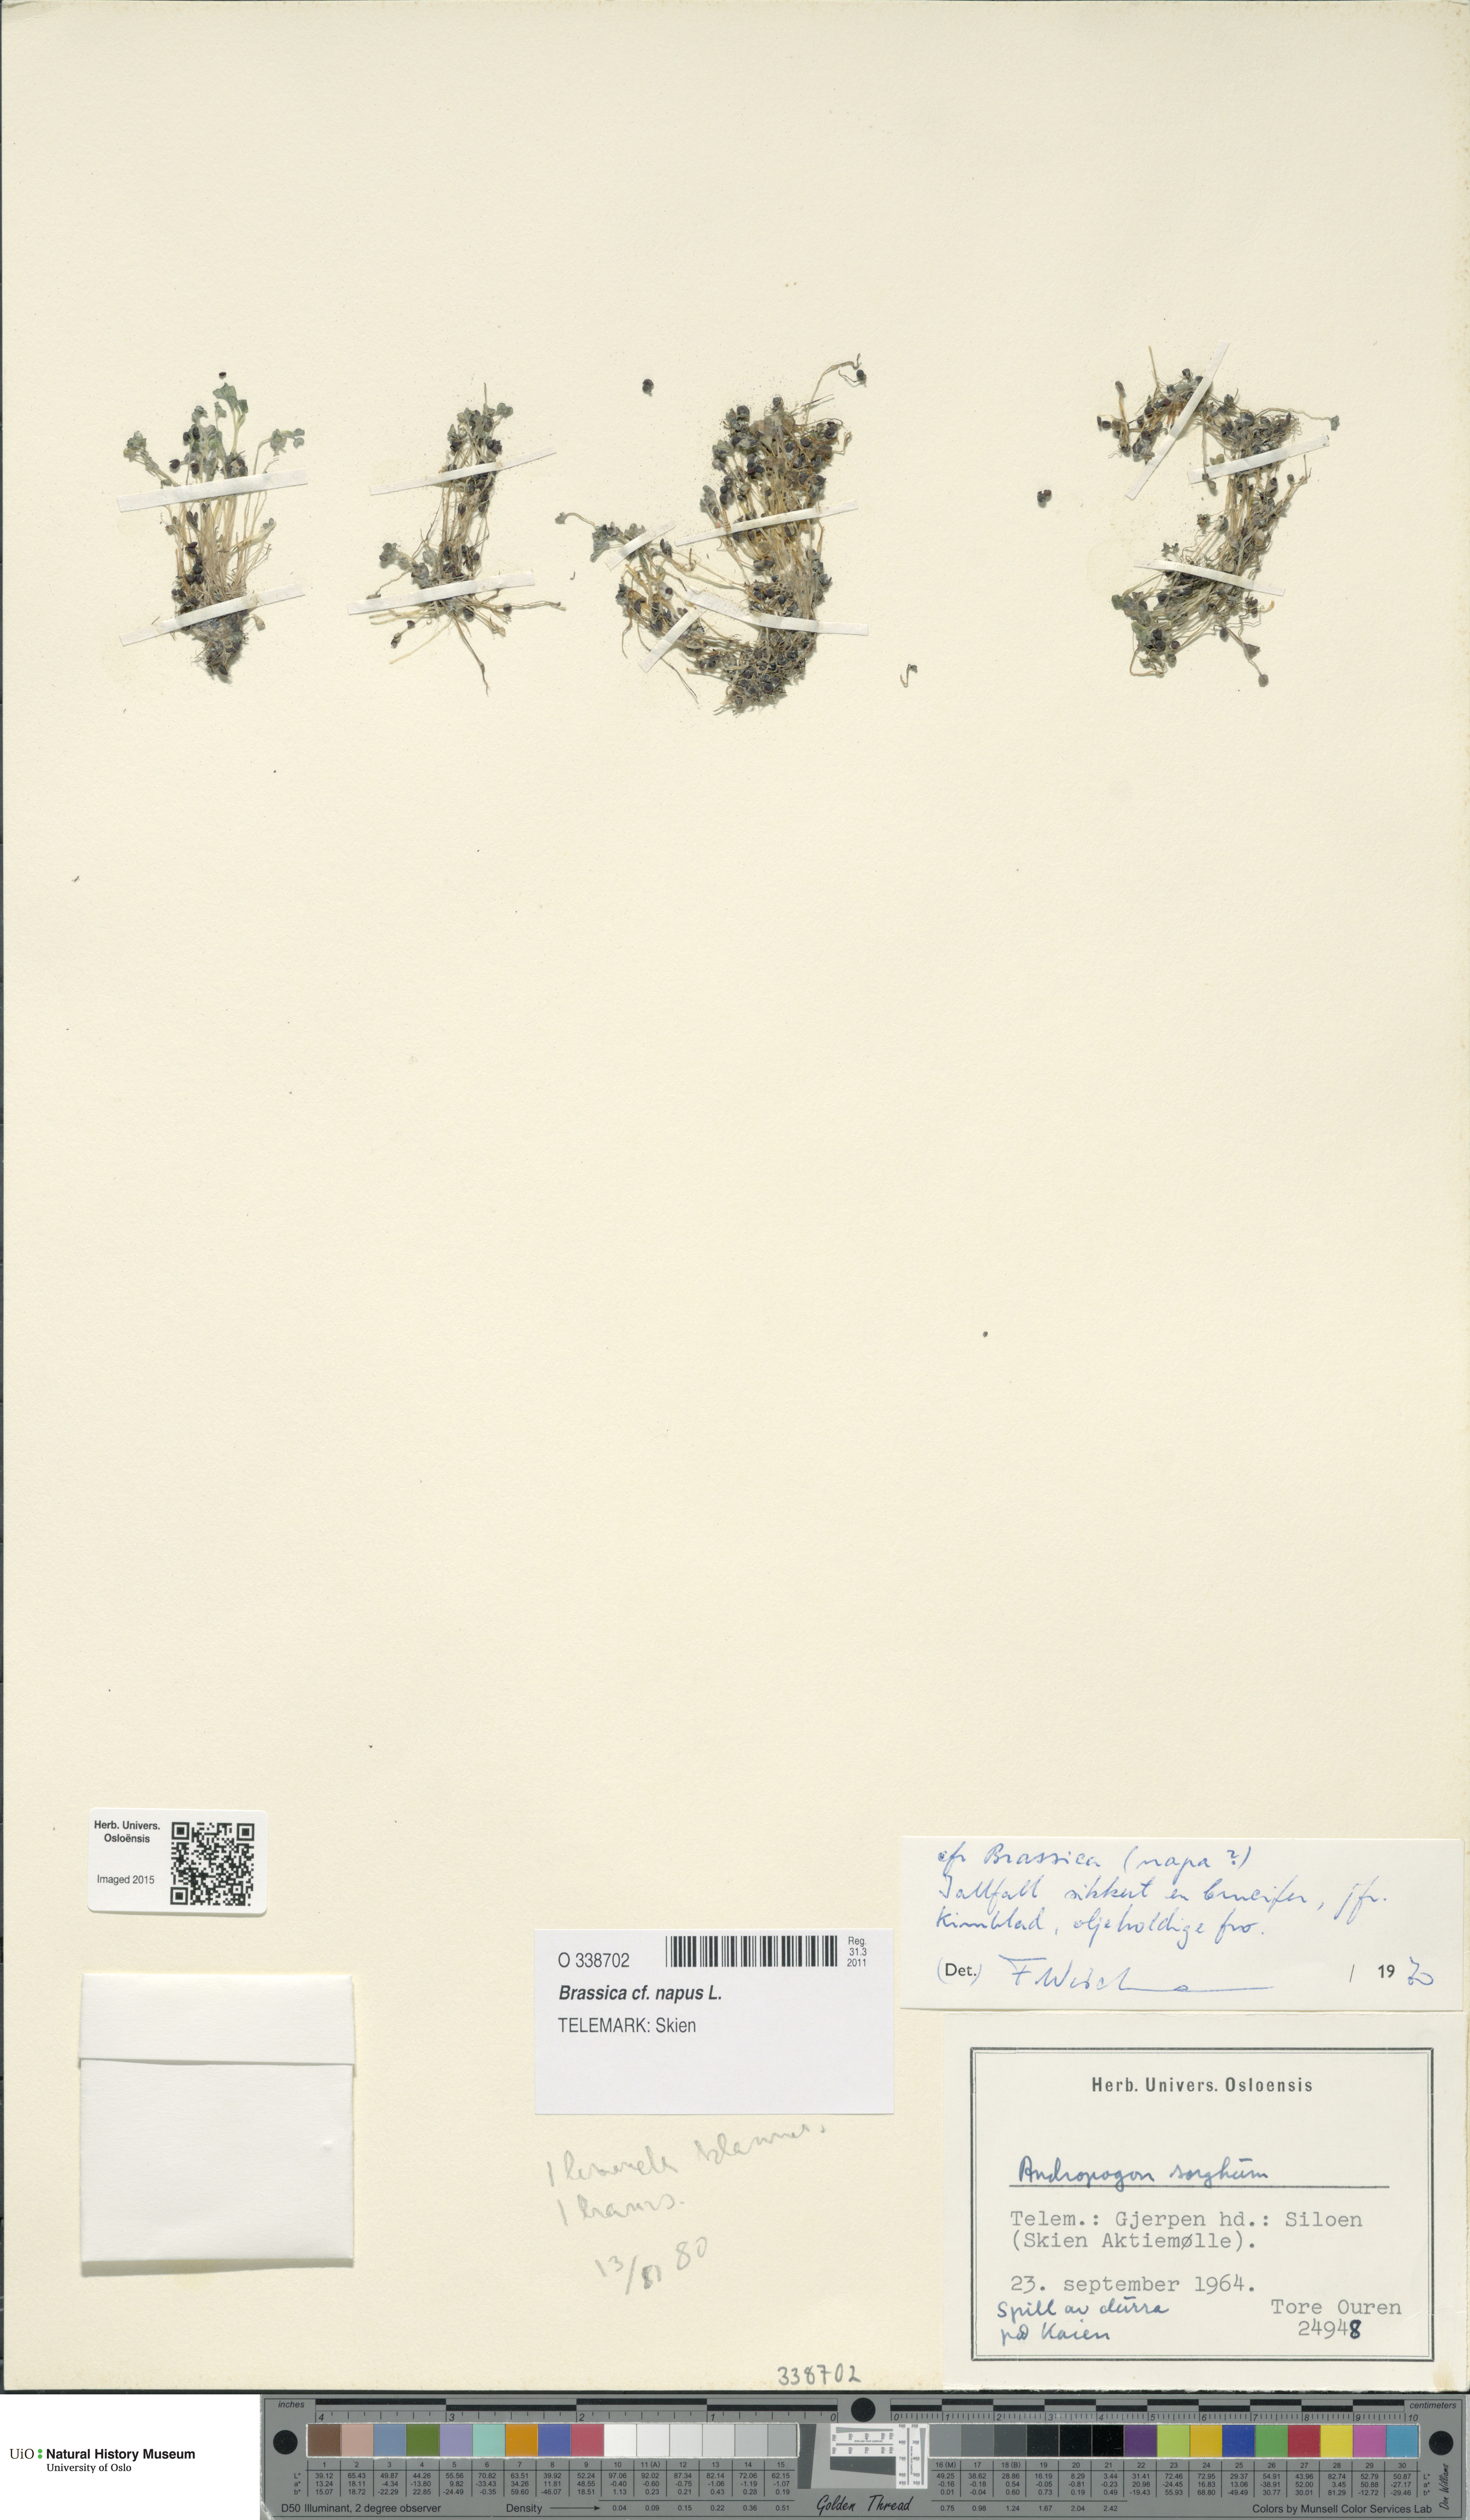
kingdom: Plantae
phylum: Tracheophyta
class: Magnoliopsida
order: Brassicales
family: Brassicaceae
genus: Brassica
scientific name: Brassica napus
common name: Rape
